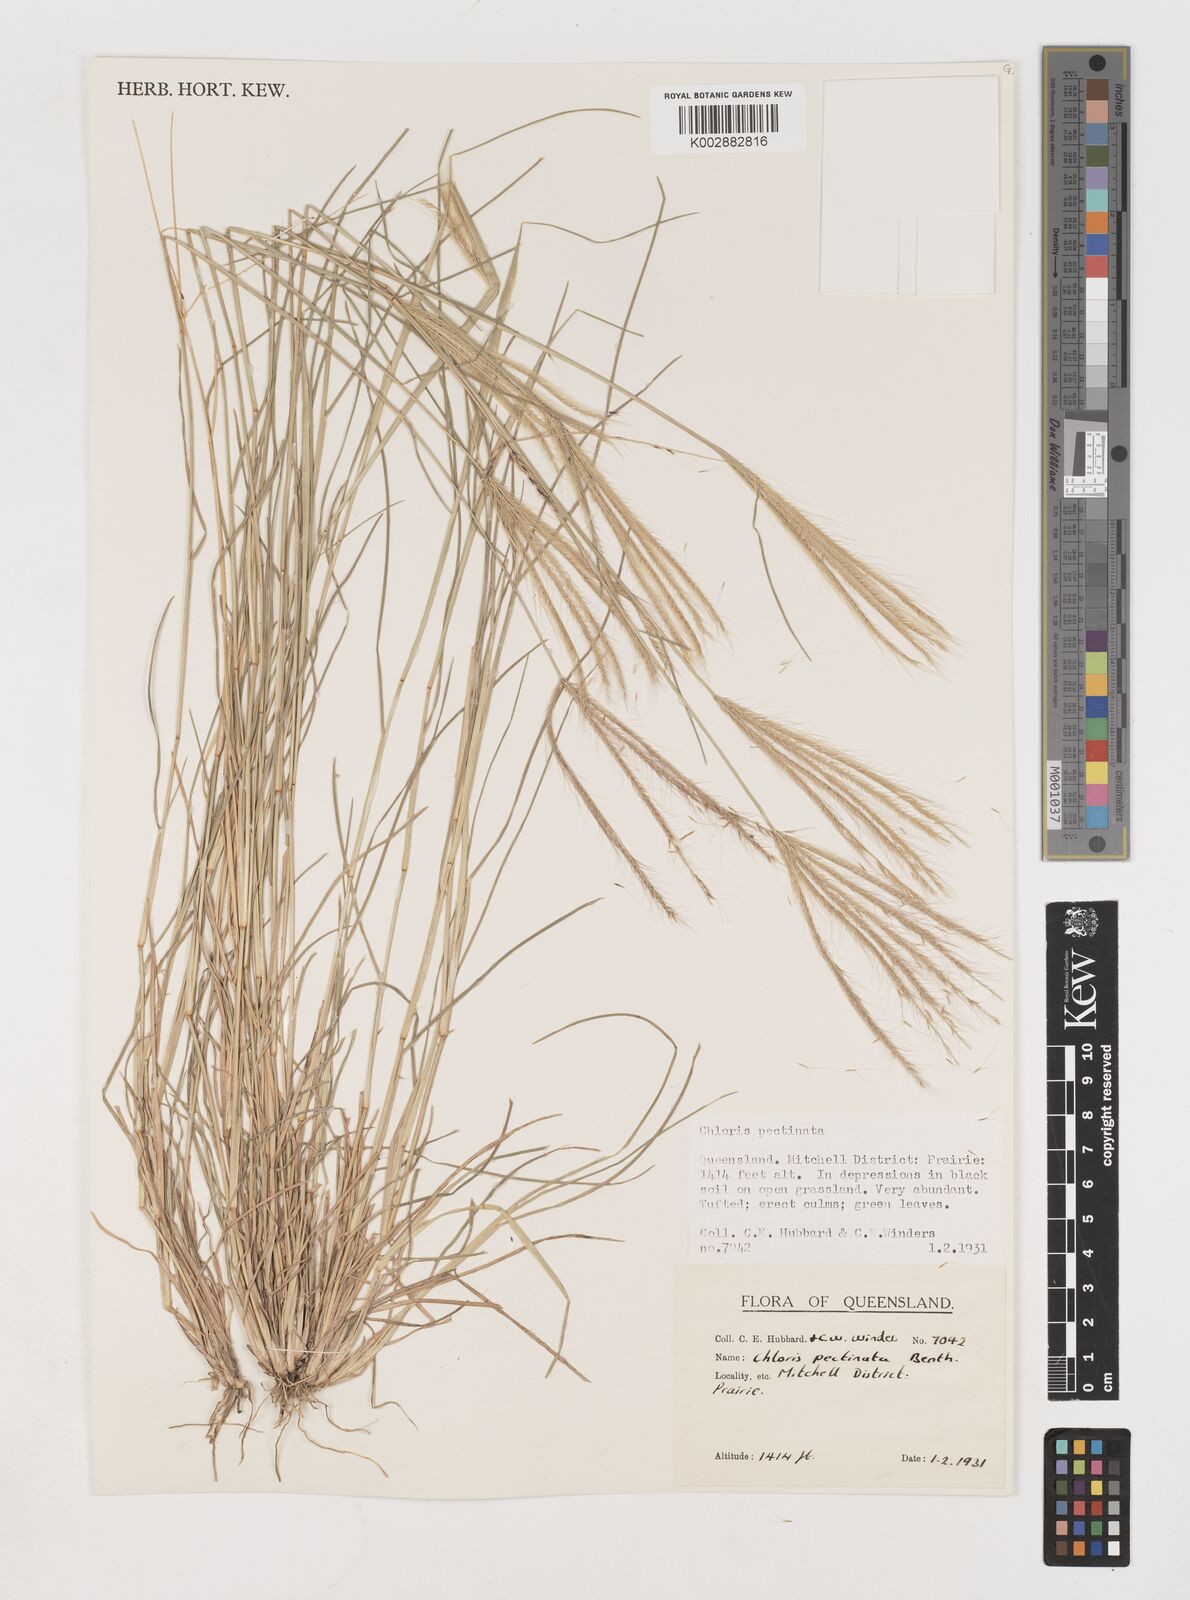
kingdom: Plantae
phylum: Tracheophyta
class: Liliopsida
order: Poales
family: Poaceae
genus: Chloris
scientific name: Chloris pectinata
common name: Comb windmill grass
